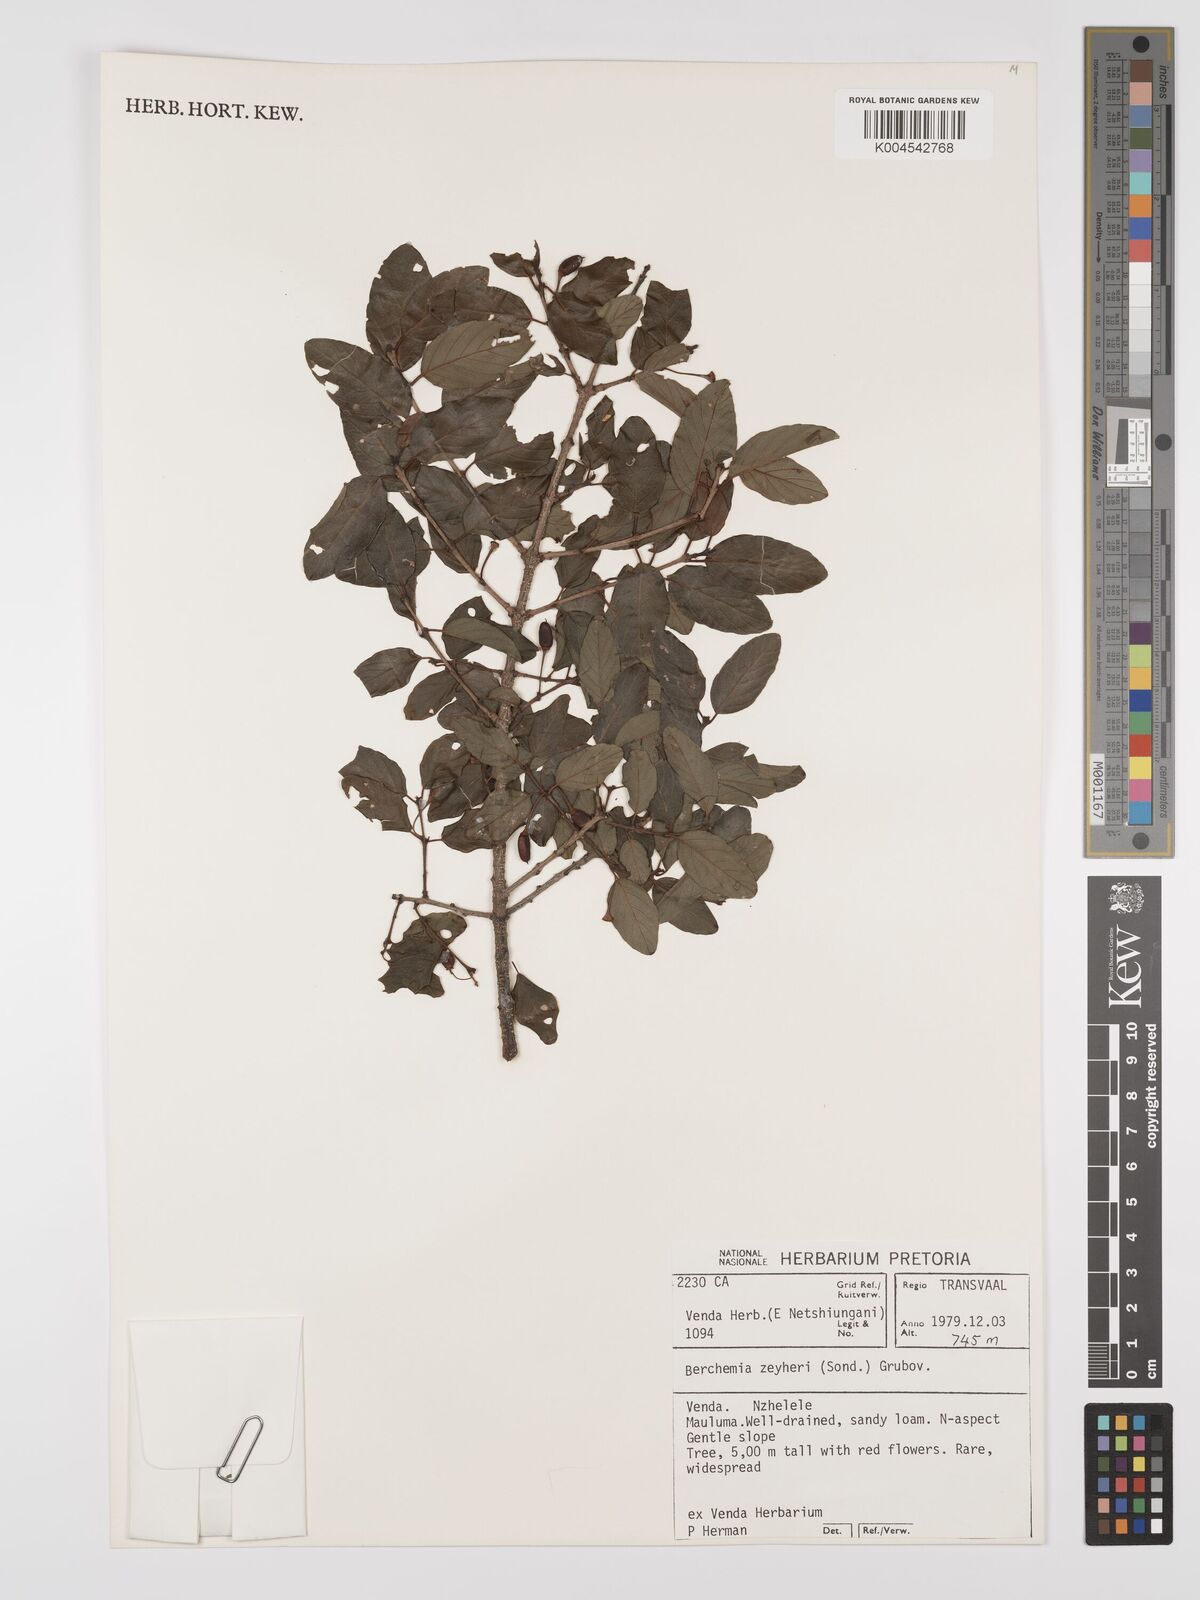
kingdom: Plantae
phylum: Tracheophyta
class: Magnoliopsida
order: Rosales
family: Rhamnaceae
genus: Phyllogeiton
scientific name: Phyllogeiton zeyheri
